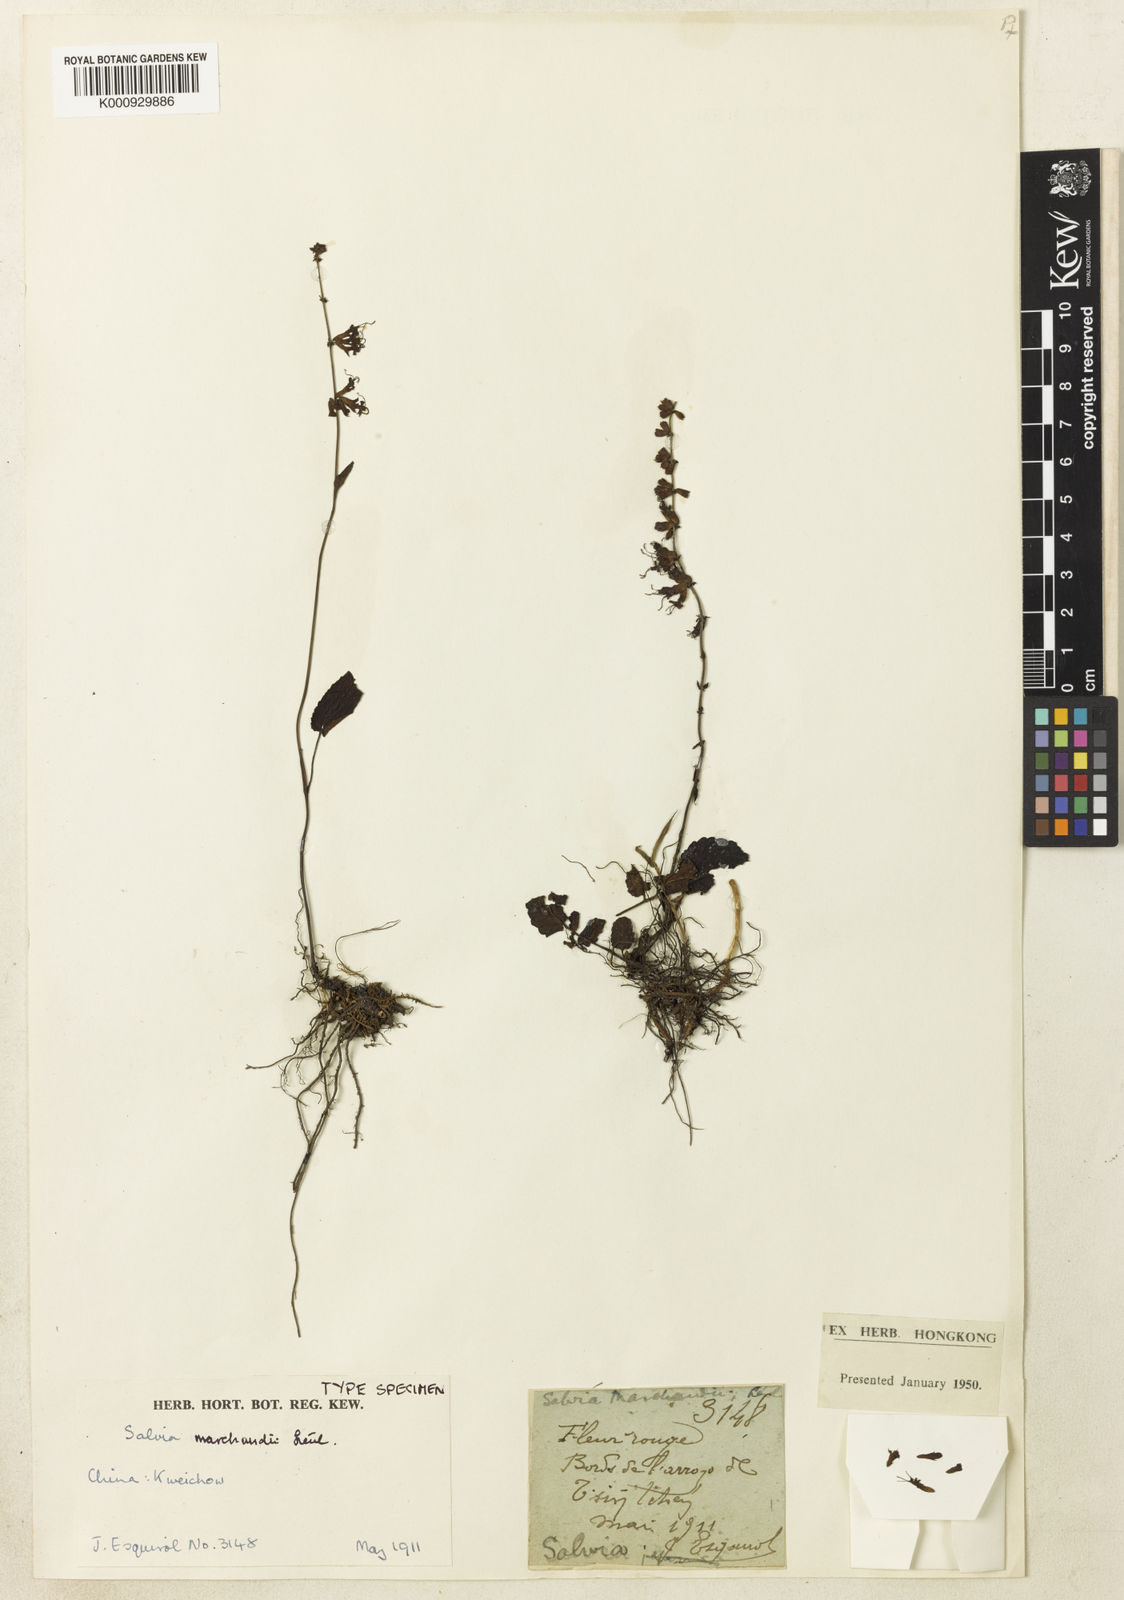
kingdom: Plantae
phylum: Tracheophyta
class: Magnoliopsida
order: Lamiales
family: Lamiaceae
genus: Salvia
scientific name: Salvia
